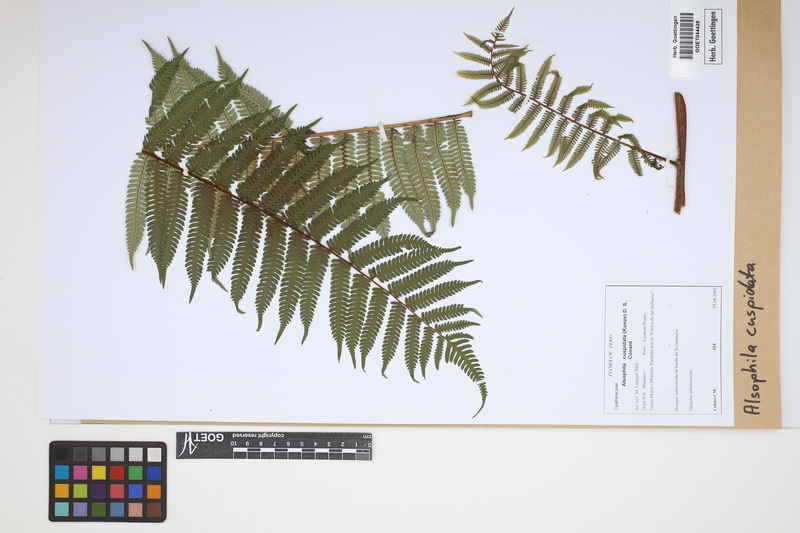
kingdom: Plantae
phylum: Tracheophyta
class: Polypodiopsida
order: Cyatheales
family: Cyatheaceae
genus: Alsophila
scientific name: Alsophila cuspidata
